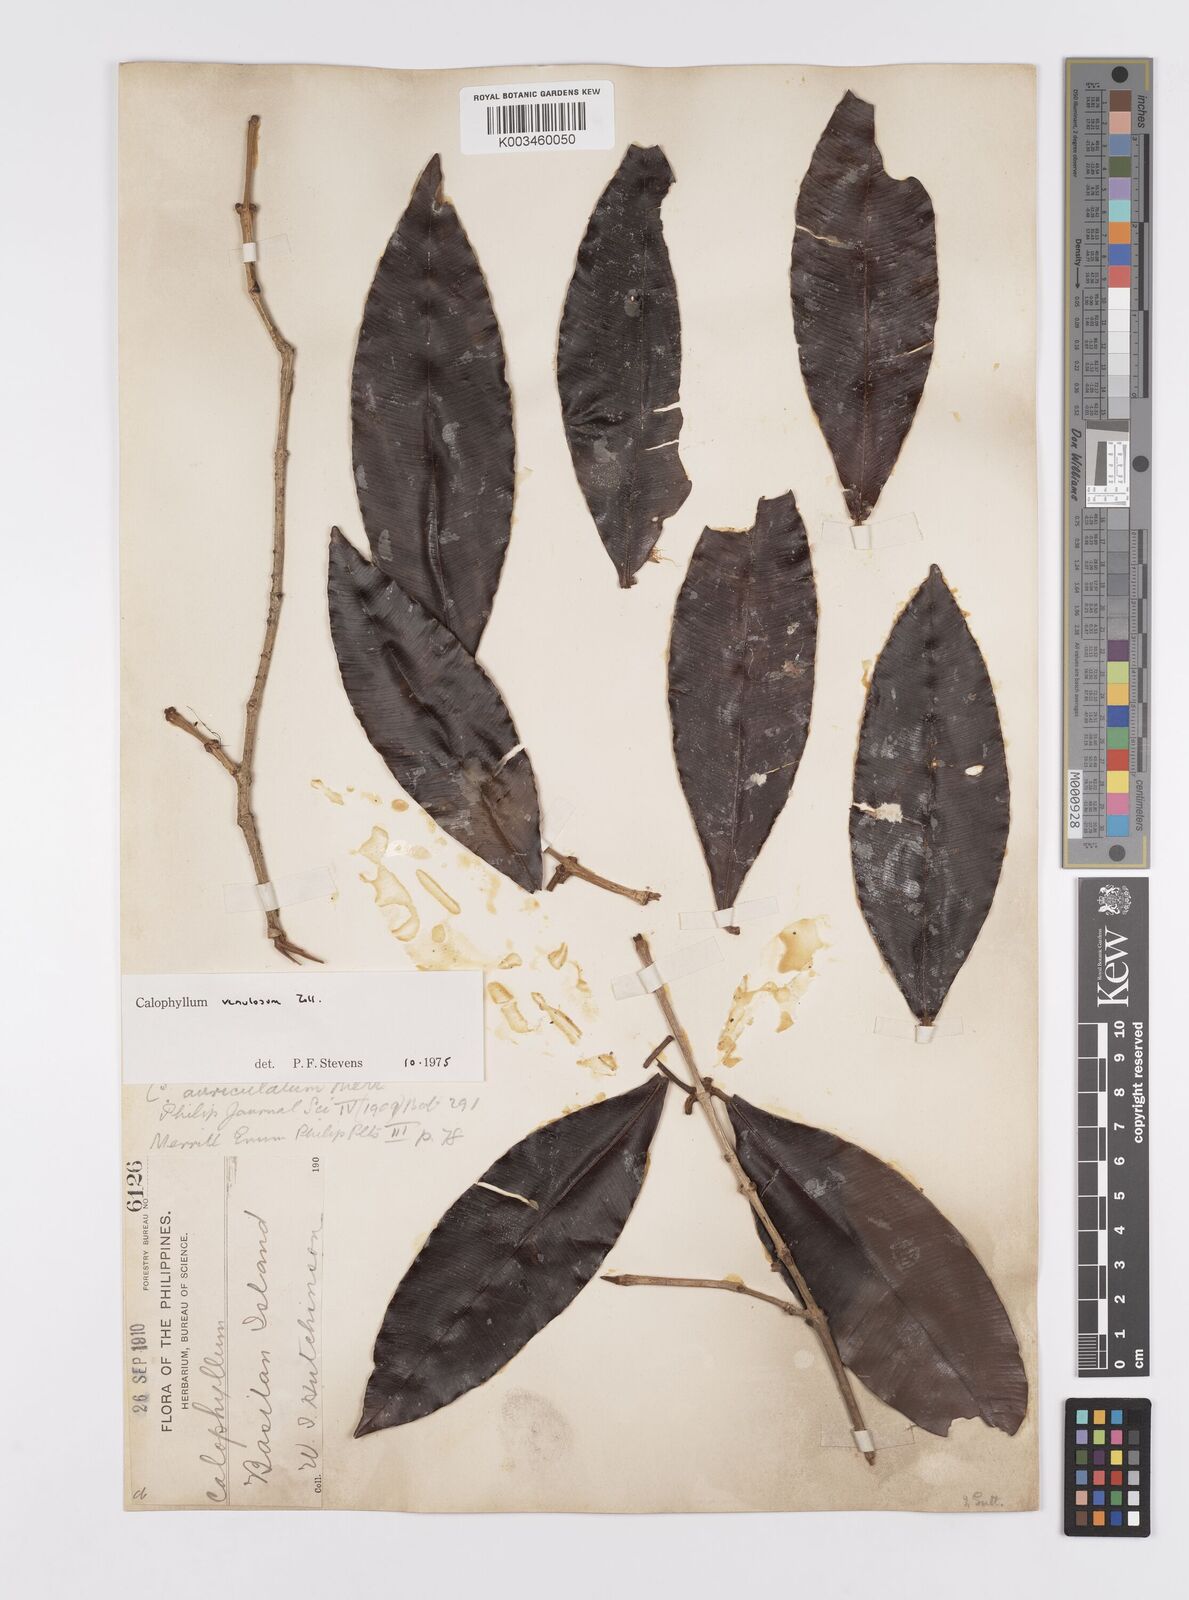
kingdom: Plantae
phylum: Tracheophyta
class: Magnoliopsida
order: Malpighiales
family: Calophyllaceae
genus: Calophyllum
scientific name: Calophyllum venulosum
